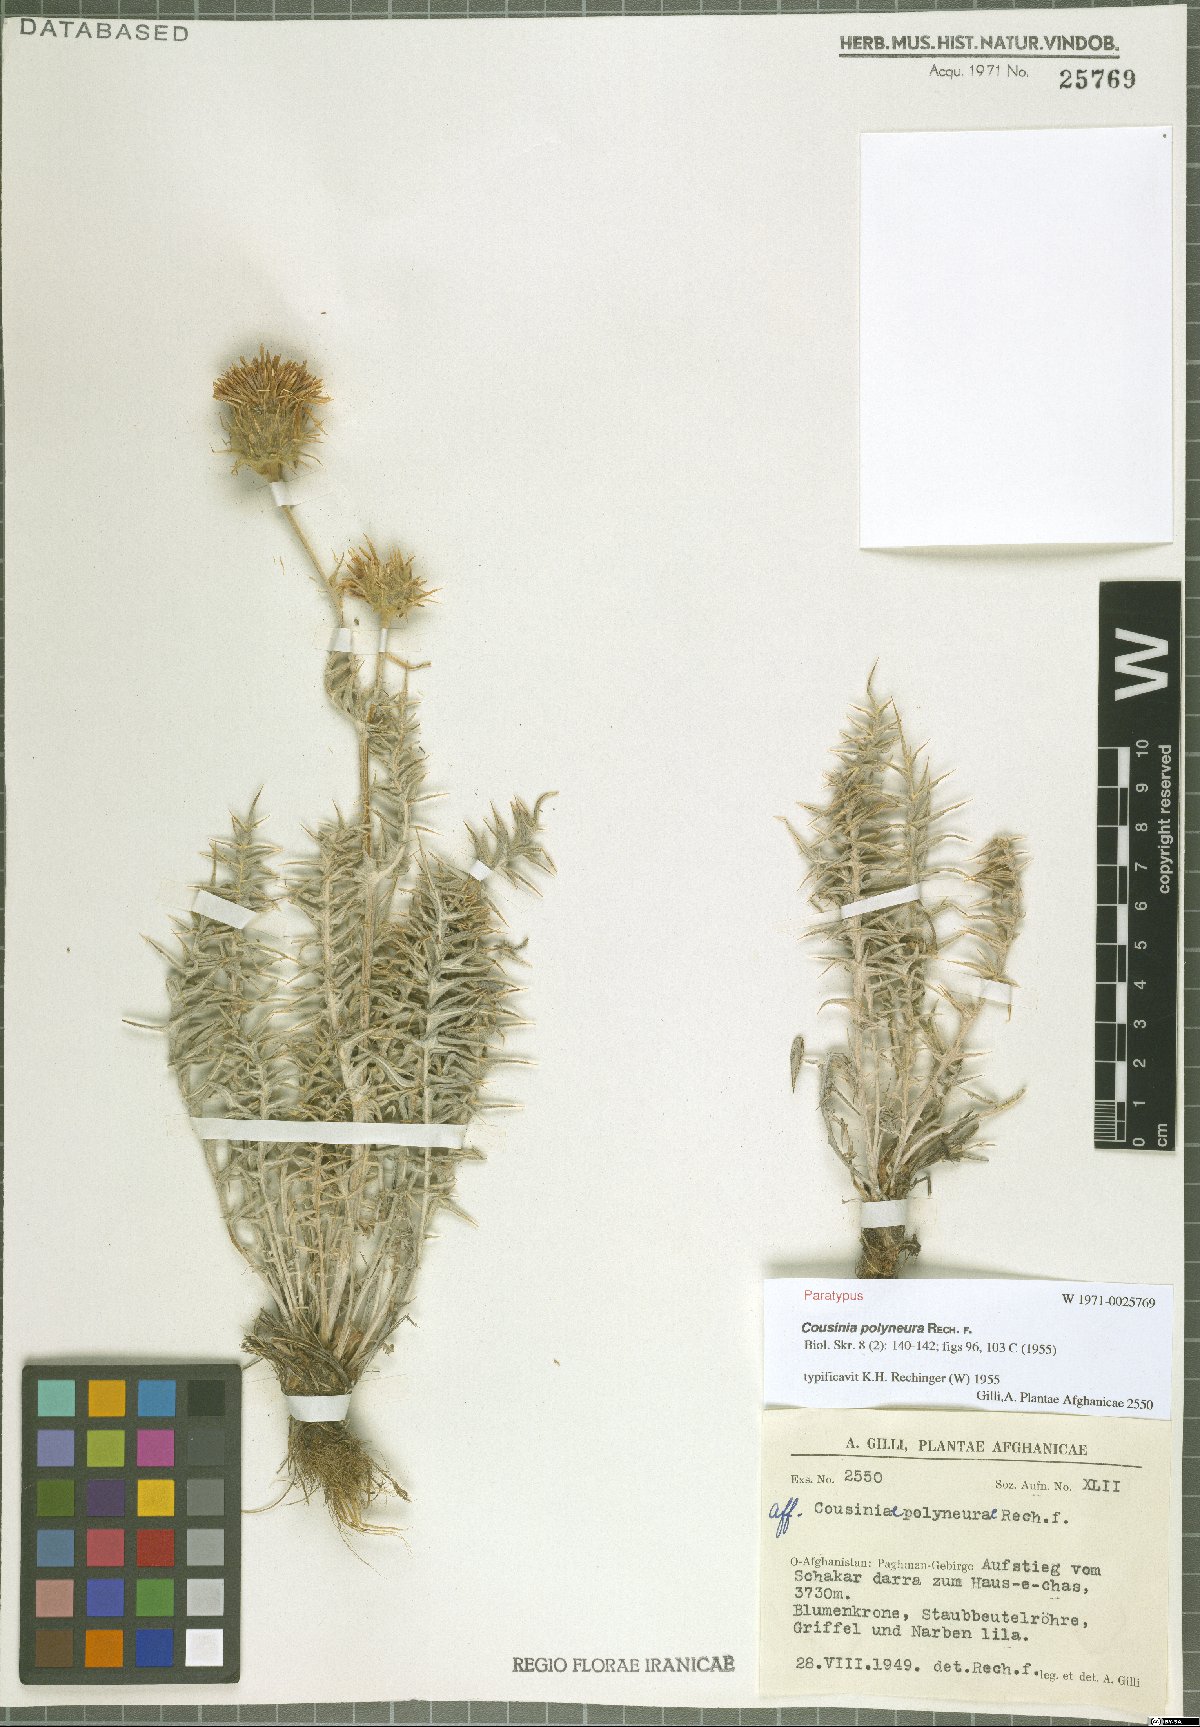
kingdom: Plantae
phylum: Tracheophyta
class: Magnoliopsida
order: Asterales
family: Asteraceae
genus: Cousinia
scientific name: Cousinia polyneura
